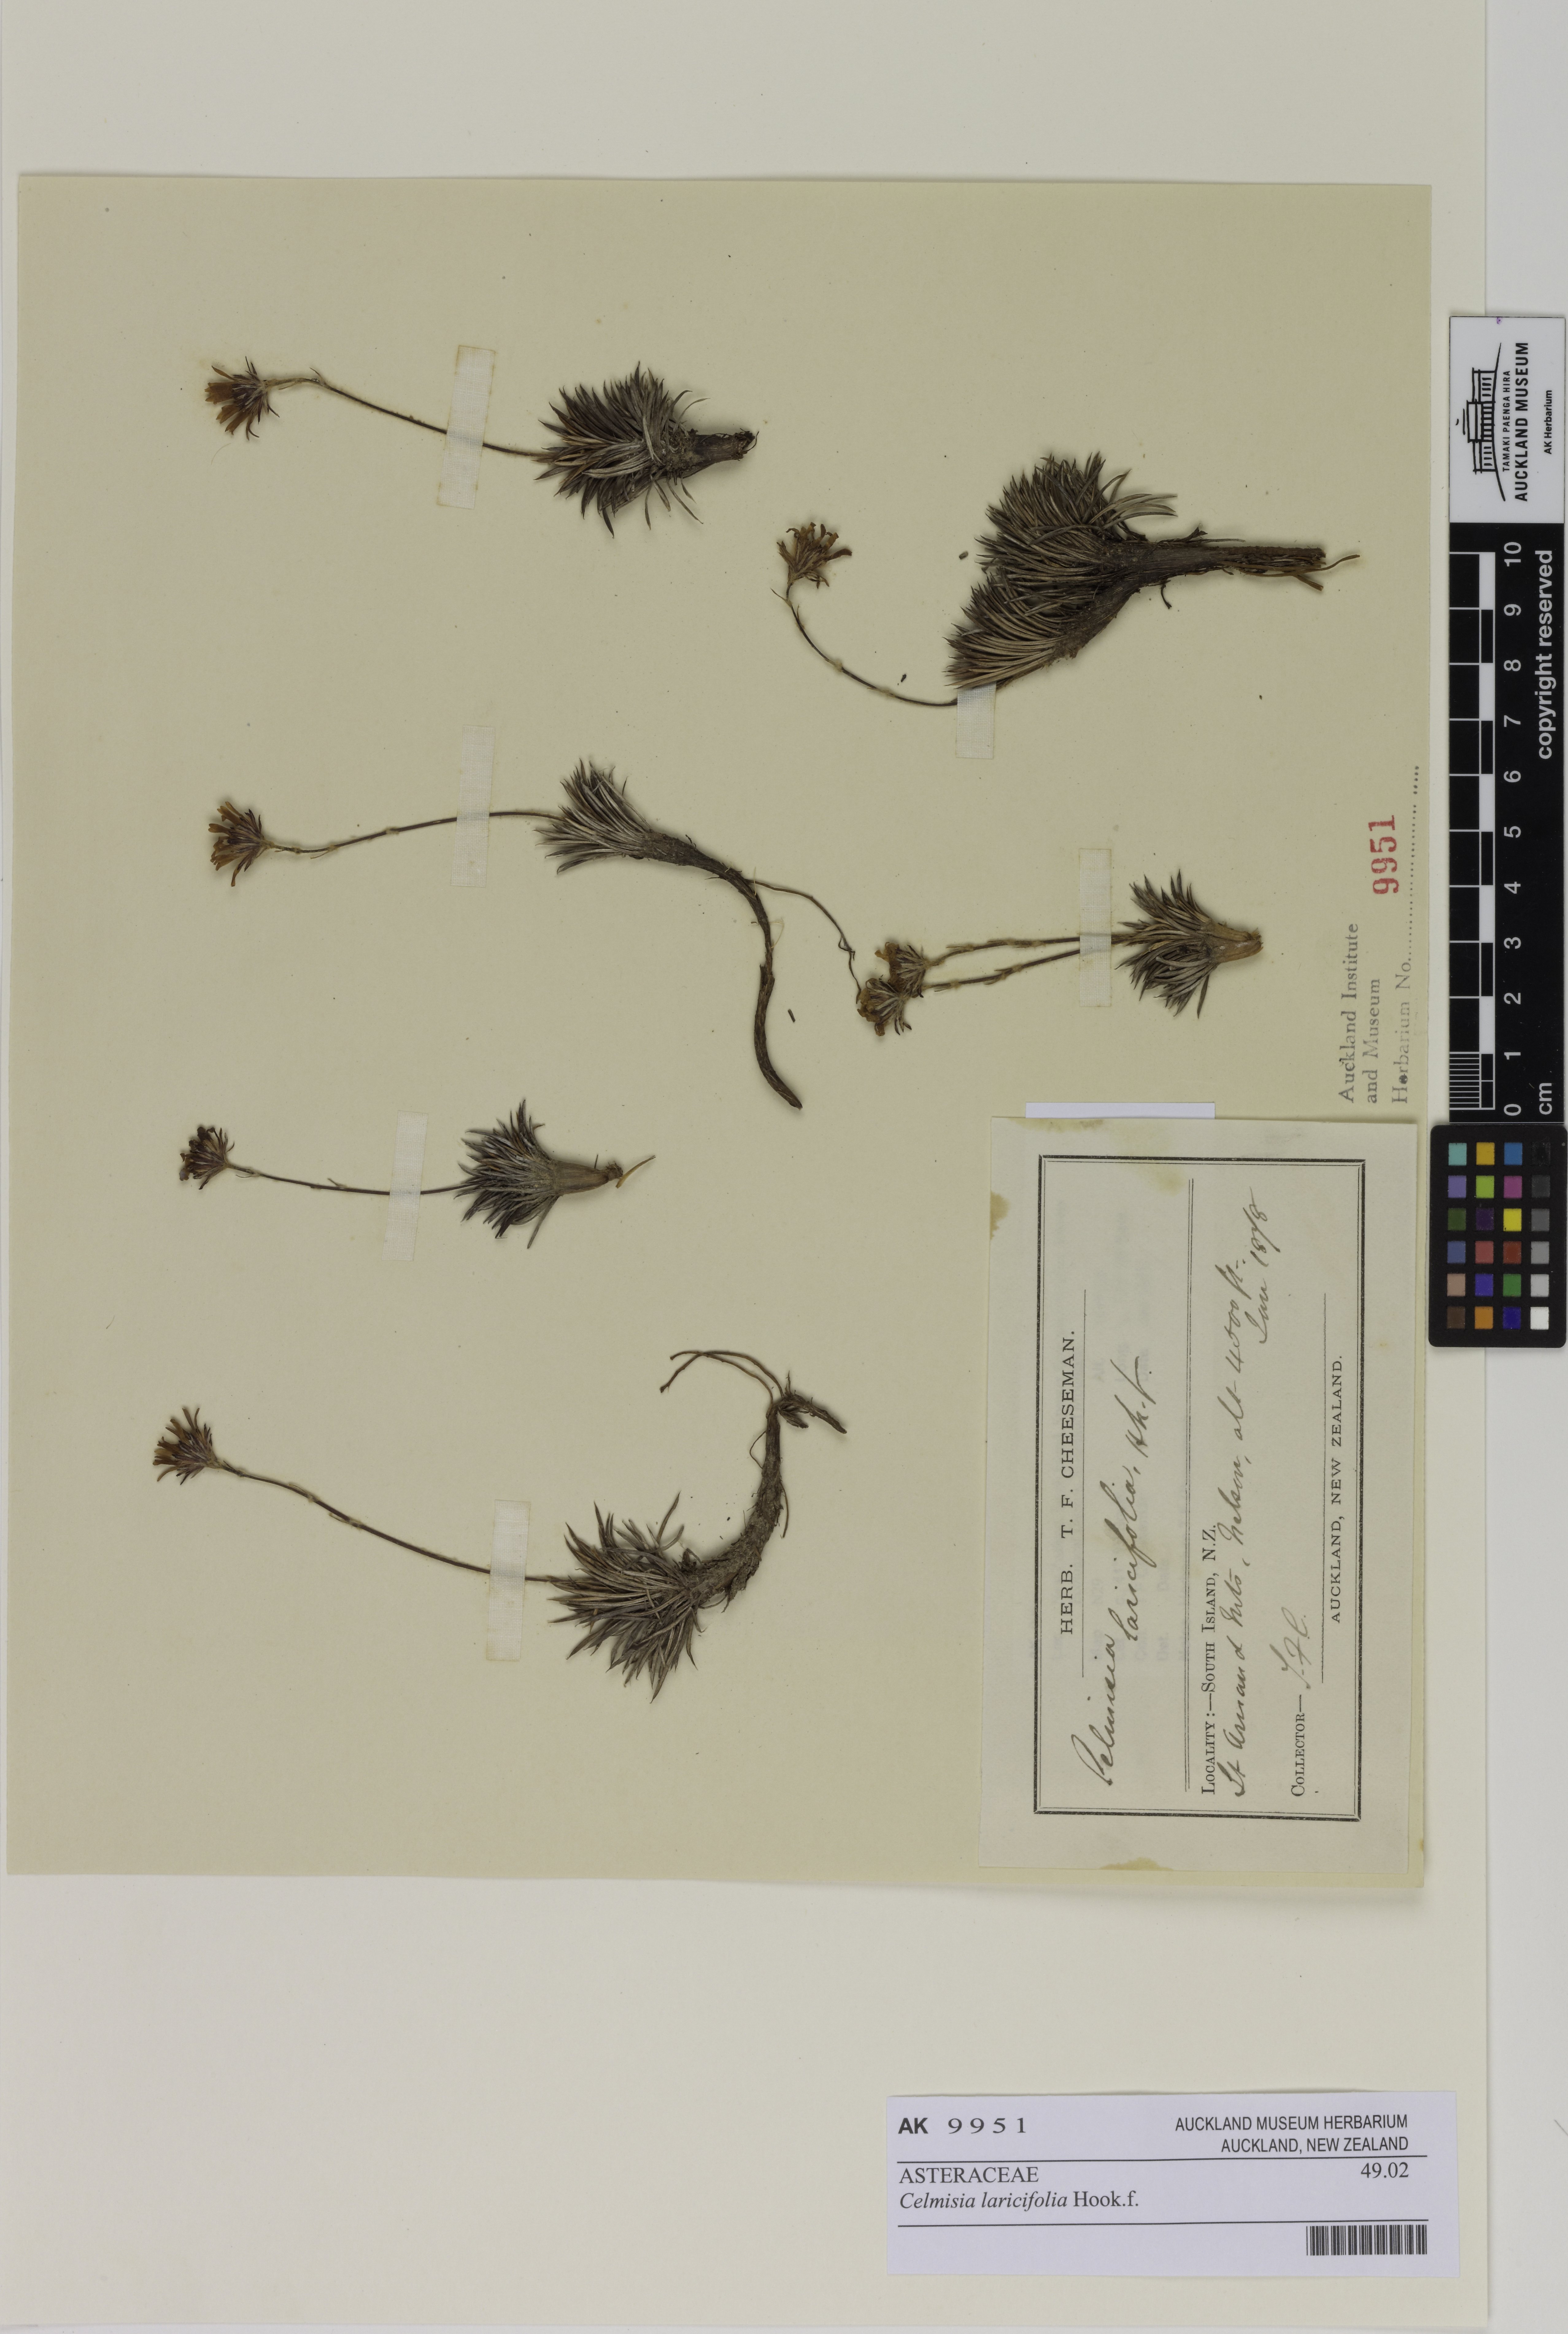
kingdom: Plantae
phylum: Tracheophyta
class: Magnoliopsida
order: Asterales
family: Asteraceae
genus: Celmisia
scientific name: Celmisia laricifolia
